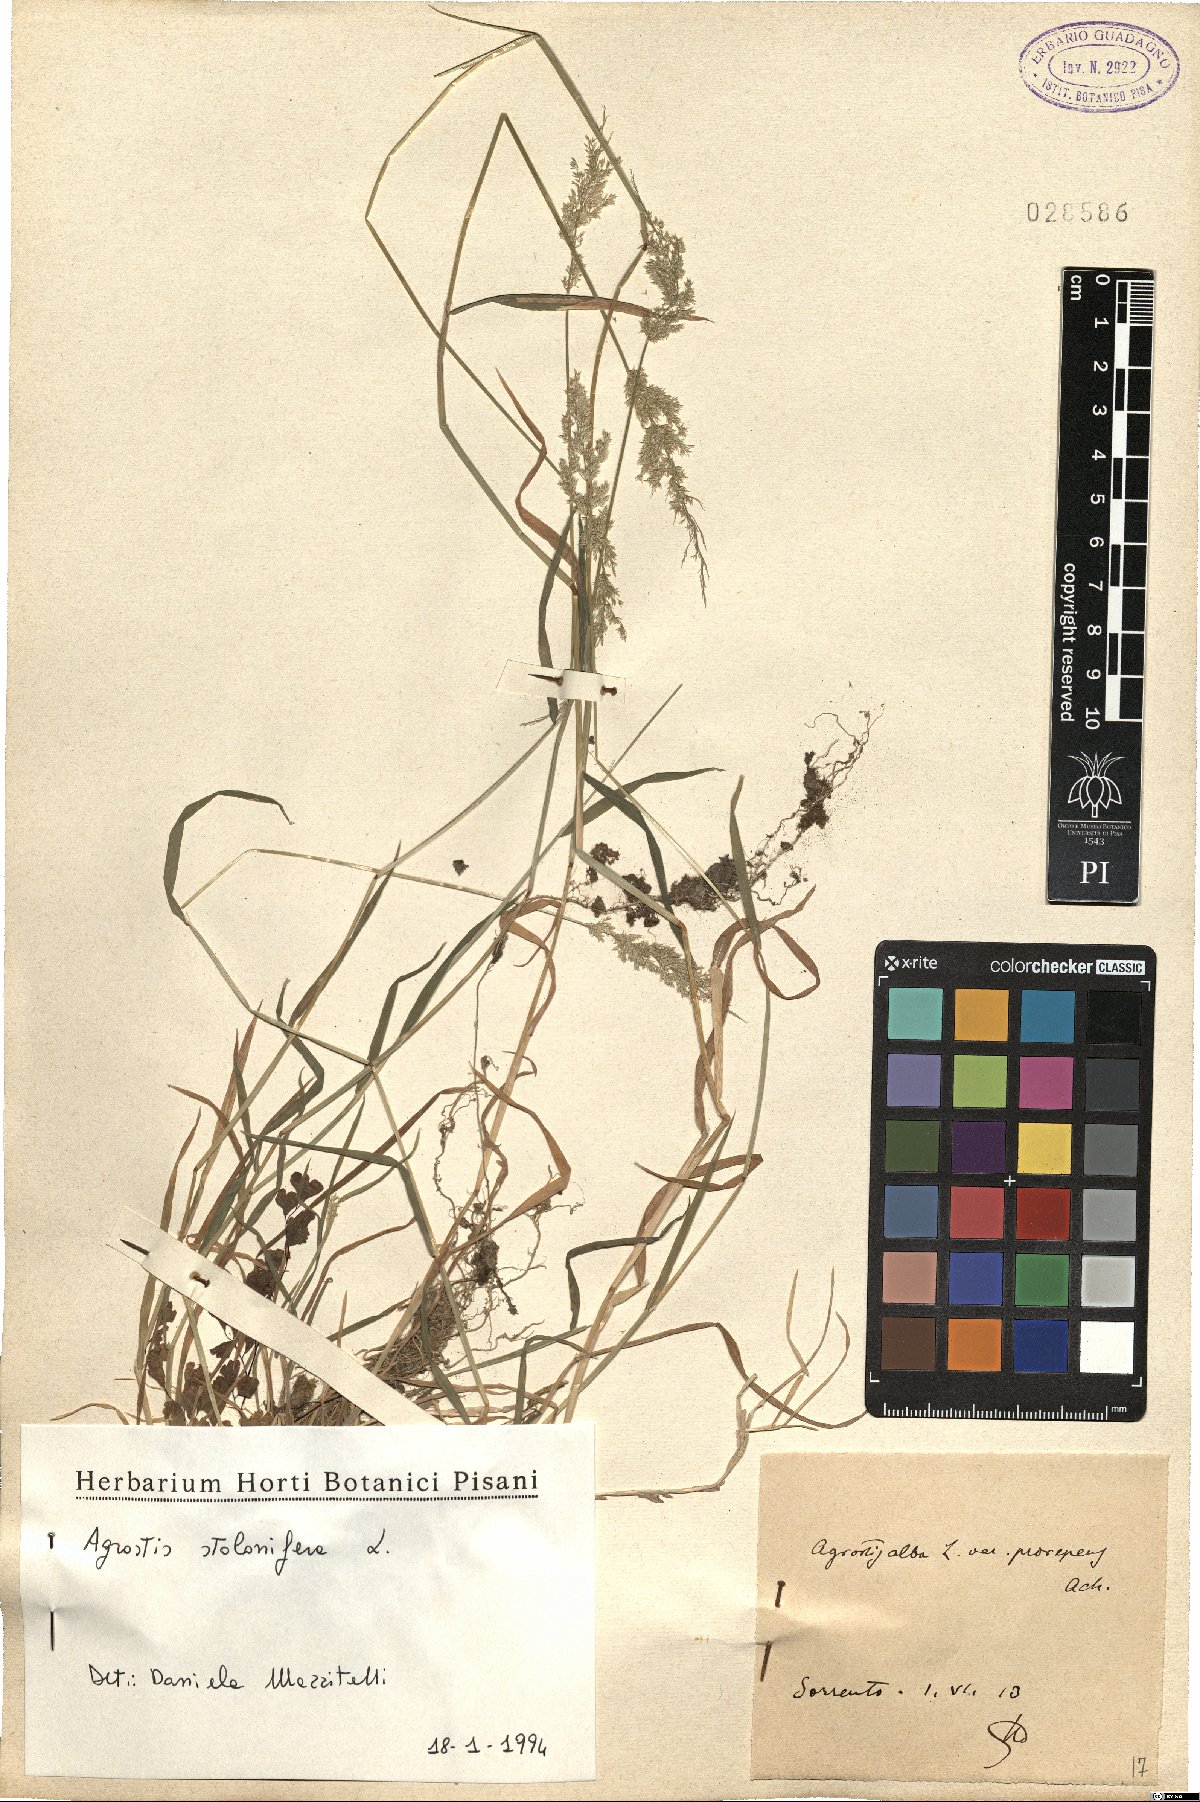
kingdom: Plantae
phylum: Tracheophyta
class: Liliopsida
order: Poales
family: Poaceae
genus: Agrostis
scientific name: Agrostis stolonifera
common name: Creeping bentgrass
